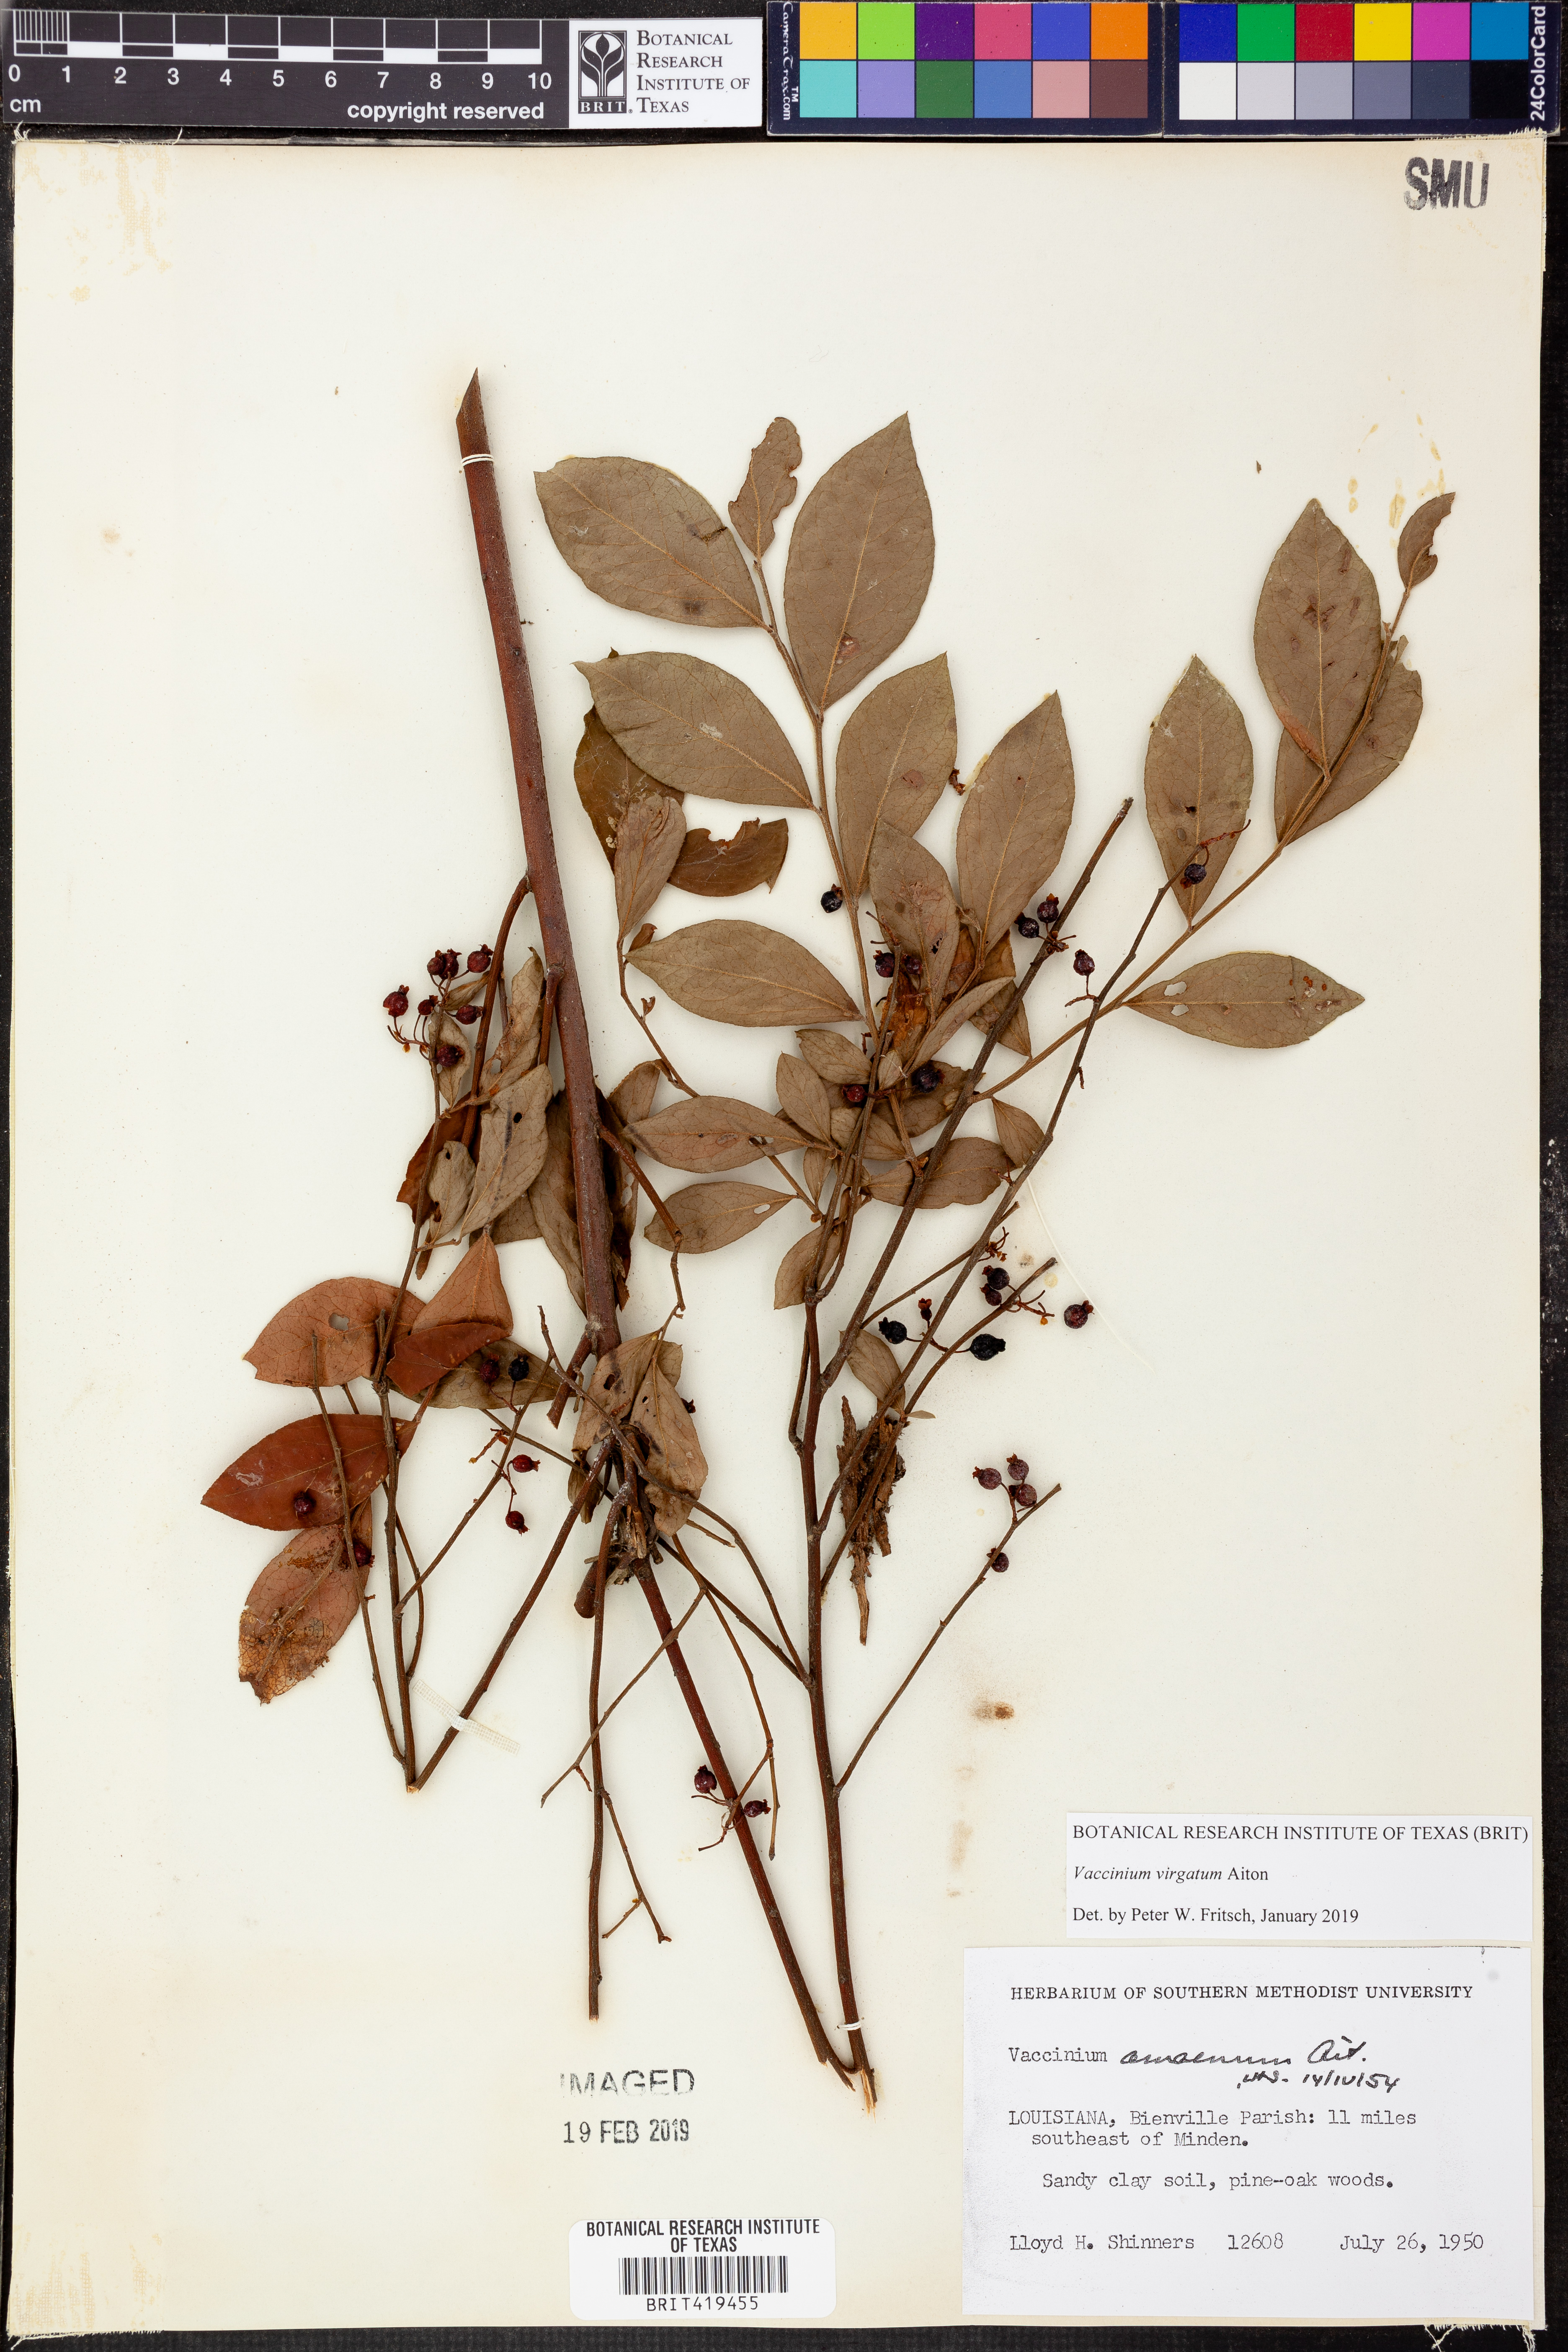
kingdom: Plantae
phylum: Tracheophyta
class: Magnoliopsida
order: Ericales
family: Ericaceae
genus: Vaccinium
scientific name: Vaccinium corymbosum
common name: Blueberry
